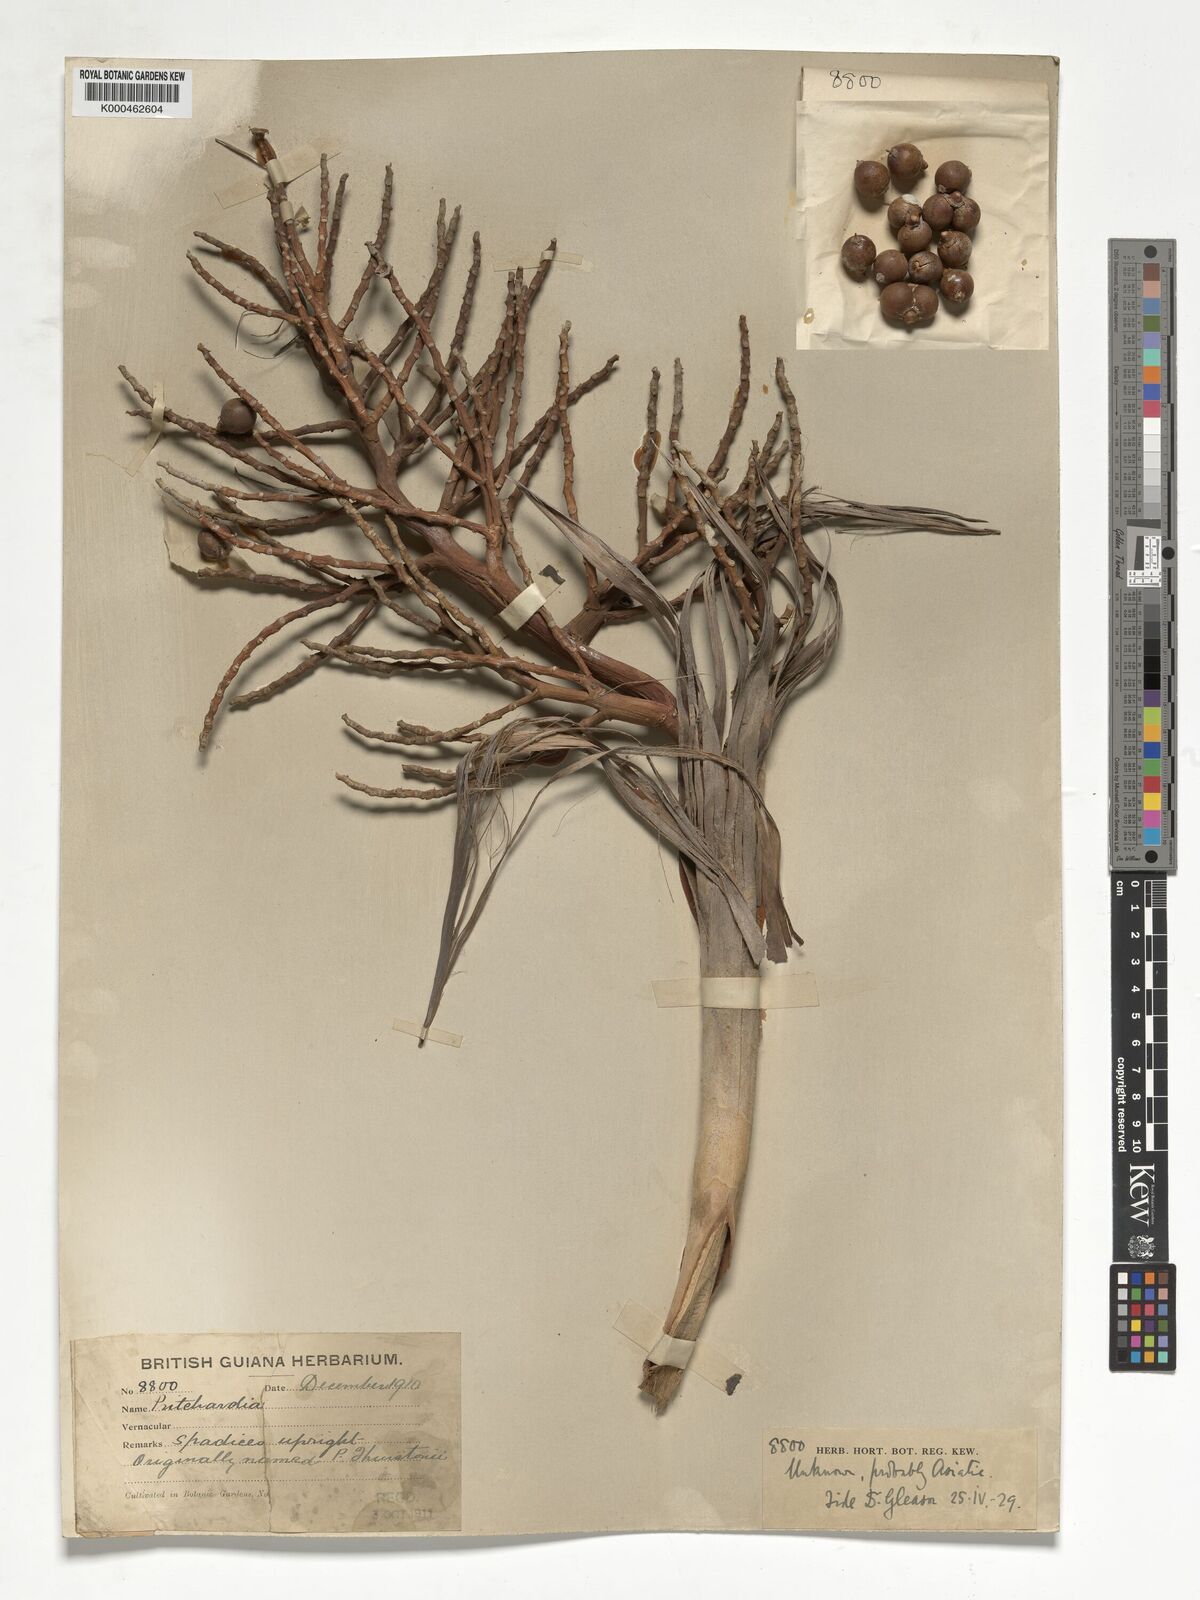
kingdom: Plantae
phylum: Tracheophyta
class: Liliopsida
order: Arecales
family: Arecaceae
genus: Pritchardia
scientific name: Pritchardia
